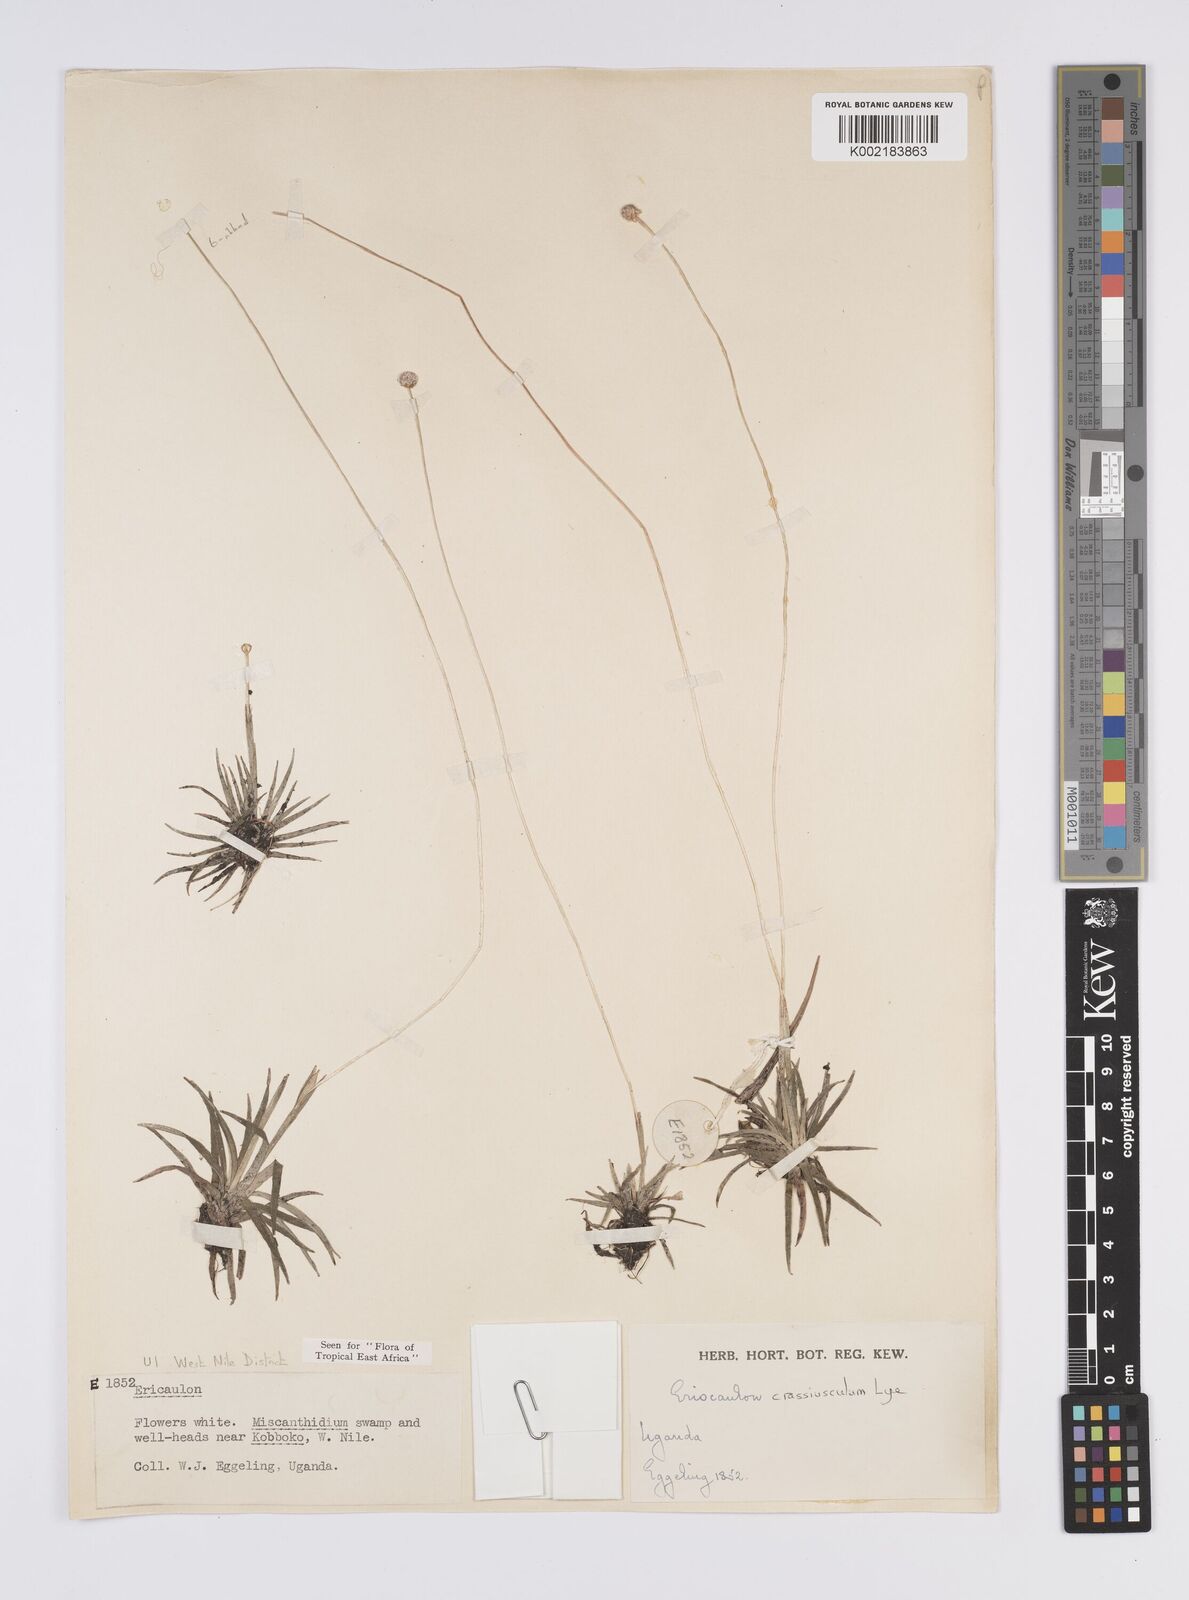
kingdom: Plantae
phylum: Tracheophyta
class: Liliopsida
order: Poales
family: Eriocaulaceae
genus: Eriocaulon
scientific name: Eriocaulon crassiusculum
